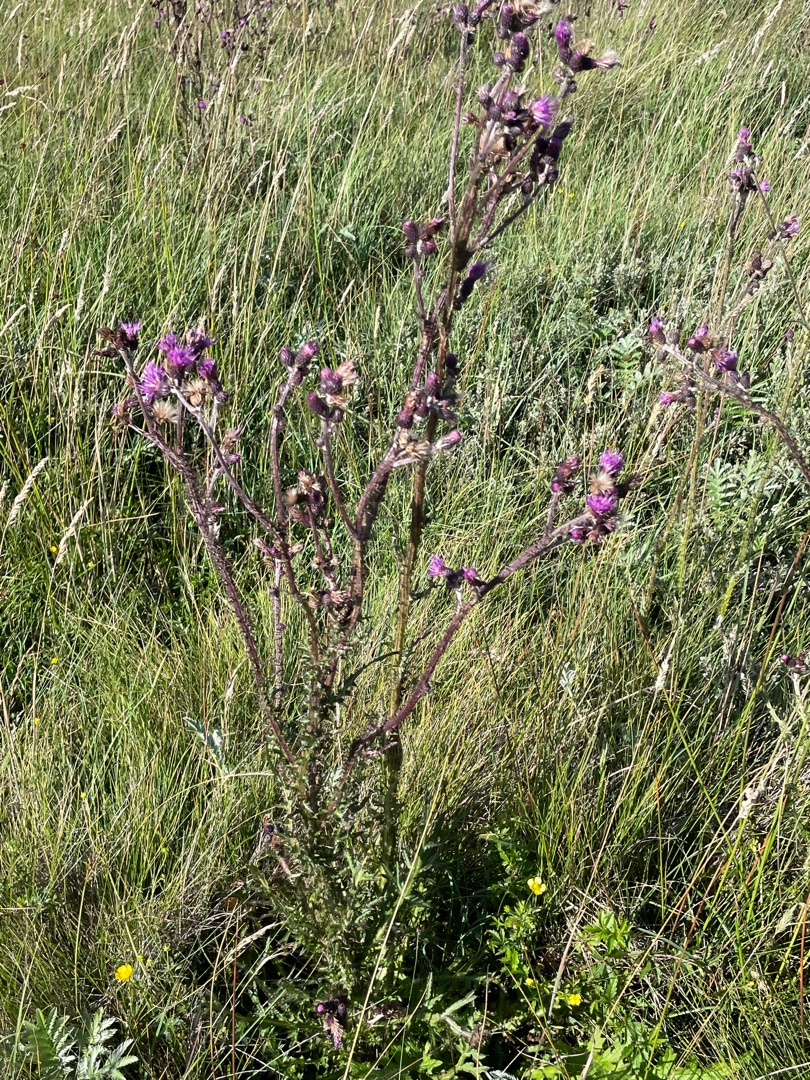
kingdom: Plantae
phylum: Tracheophyta
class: Magnoliopsida
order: Asterales
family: Asteraceae
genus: Cirsium
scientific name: Cirsium palustre
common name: Kær-tidsel
